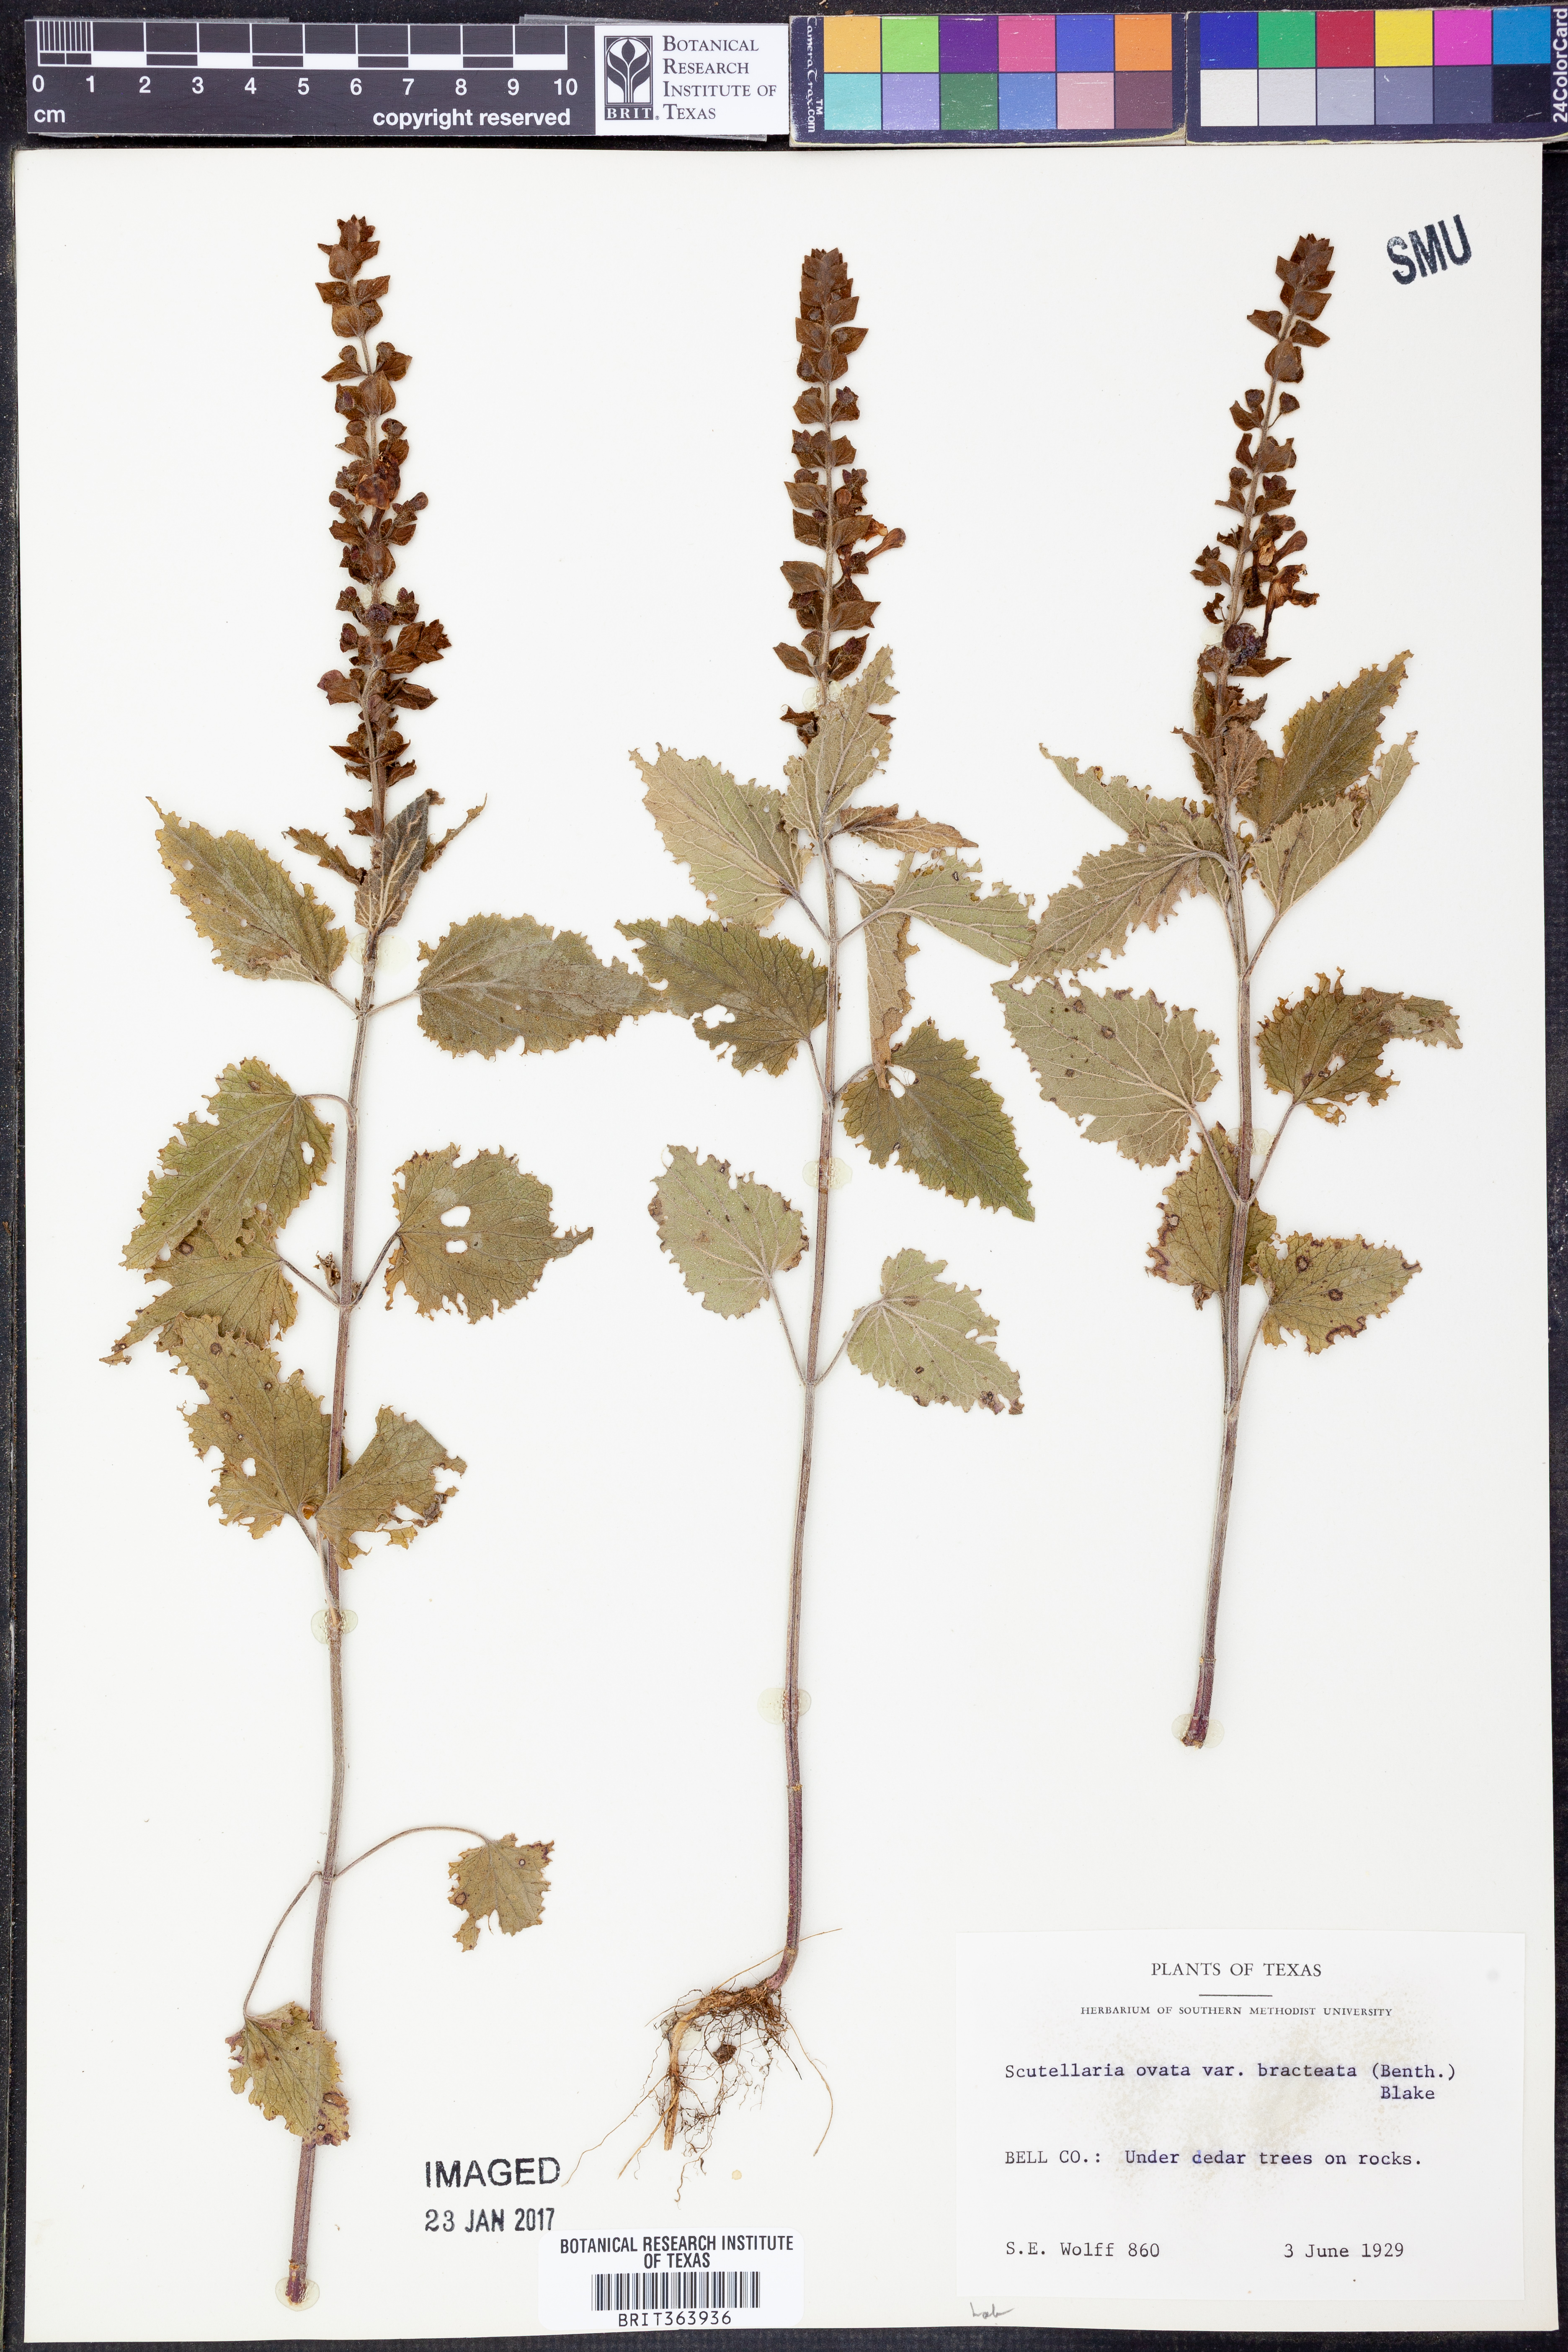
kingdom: Plantae
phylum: Tracheophyta
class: Magnoliopsida
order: Lamiales
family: Lamiaceae
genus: Scutellaria
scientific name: Scutellaria ovata
